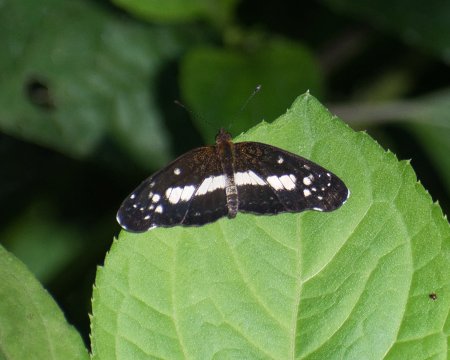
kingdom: Animalia
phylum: Arthropoda
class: Insecta
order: Lepidoptera
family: Nymphalidae
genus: Castilia
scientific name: Castilia ofella
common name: White-dotted Crescent
